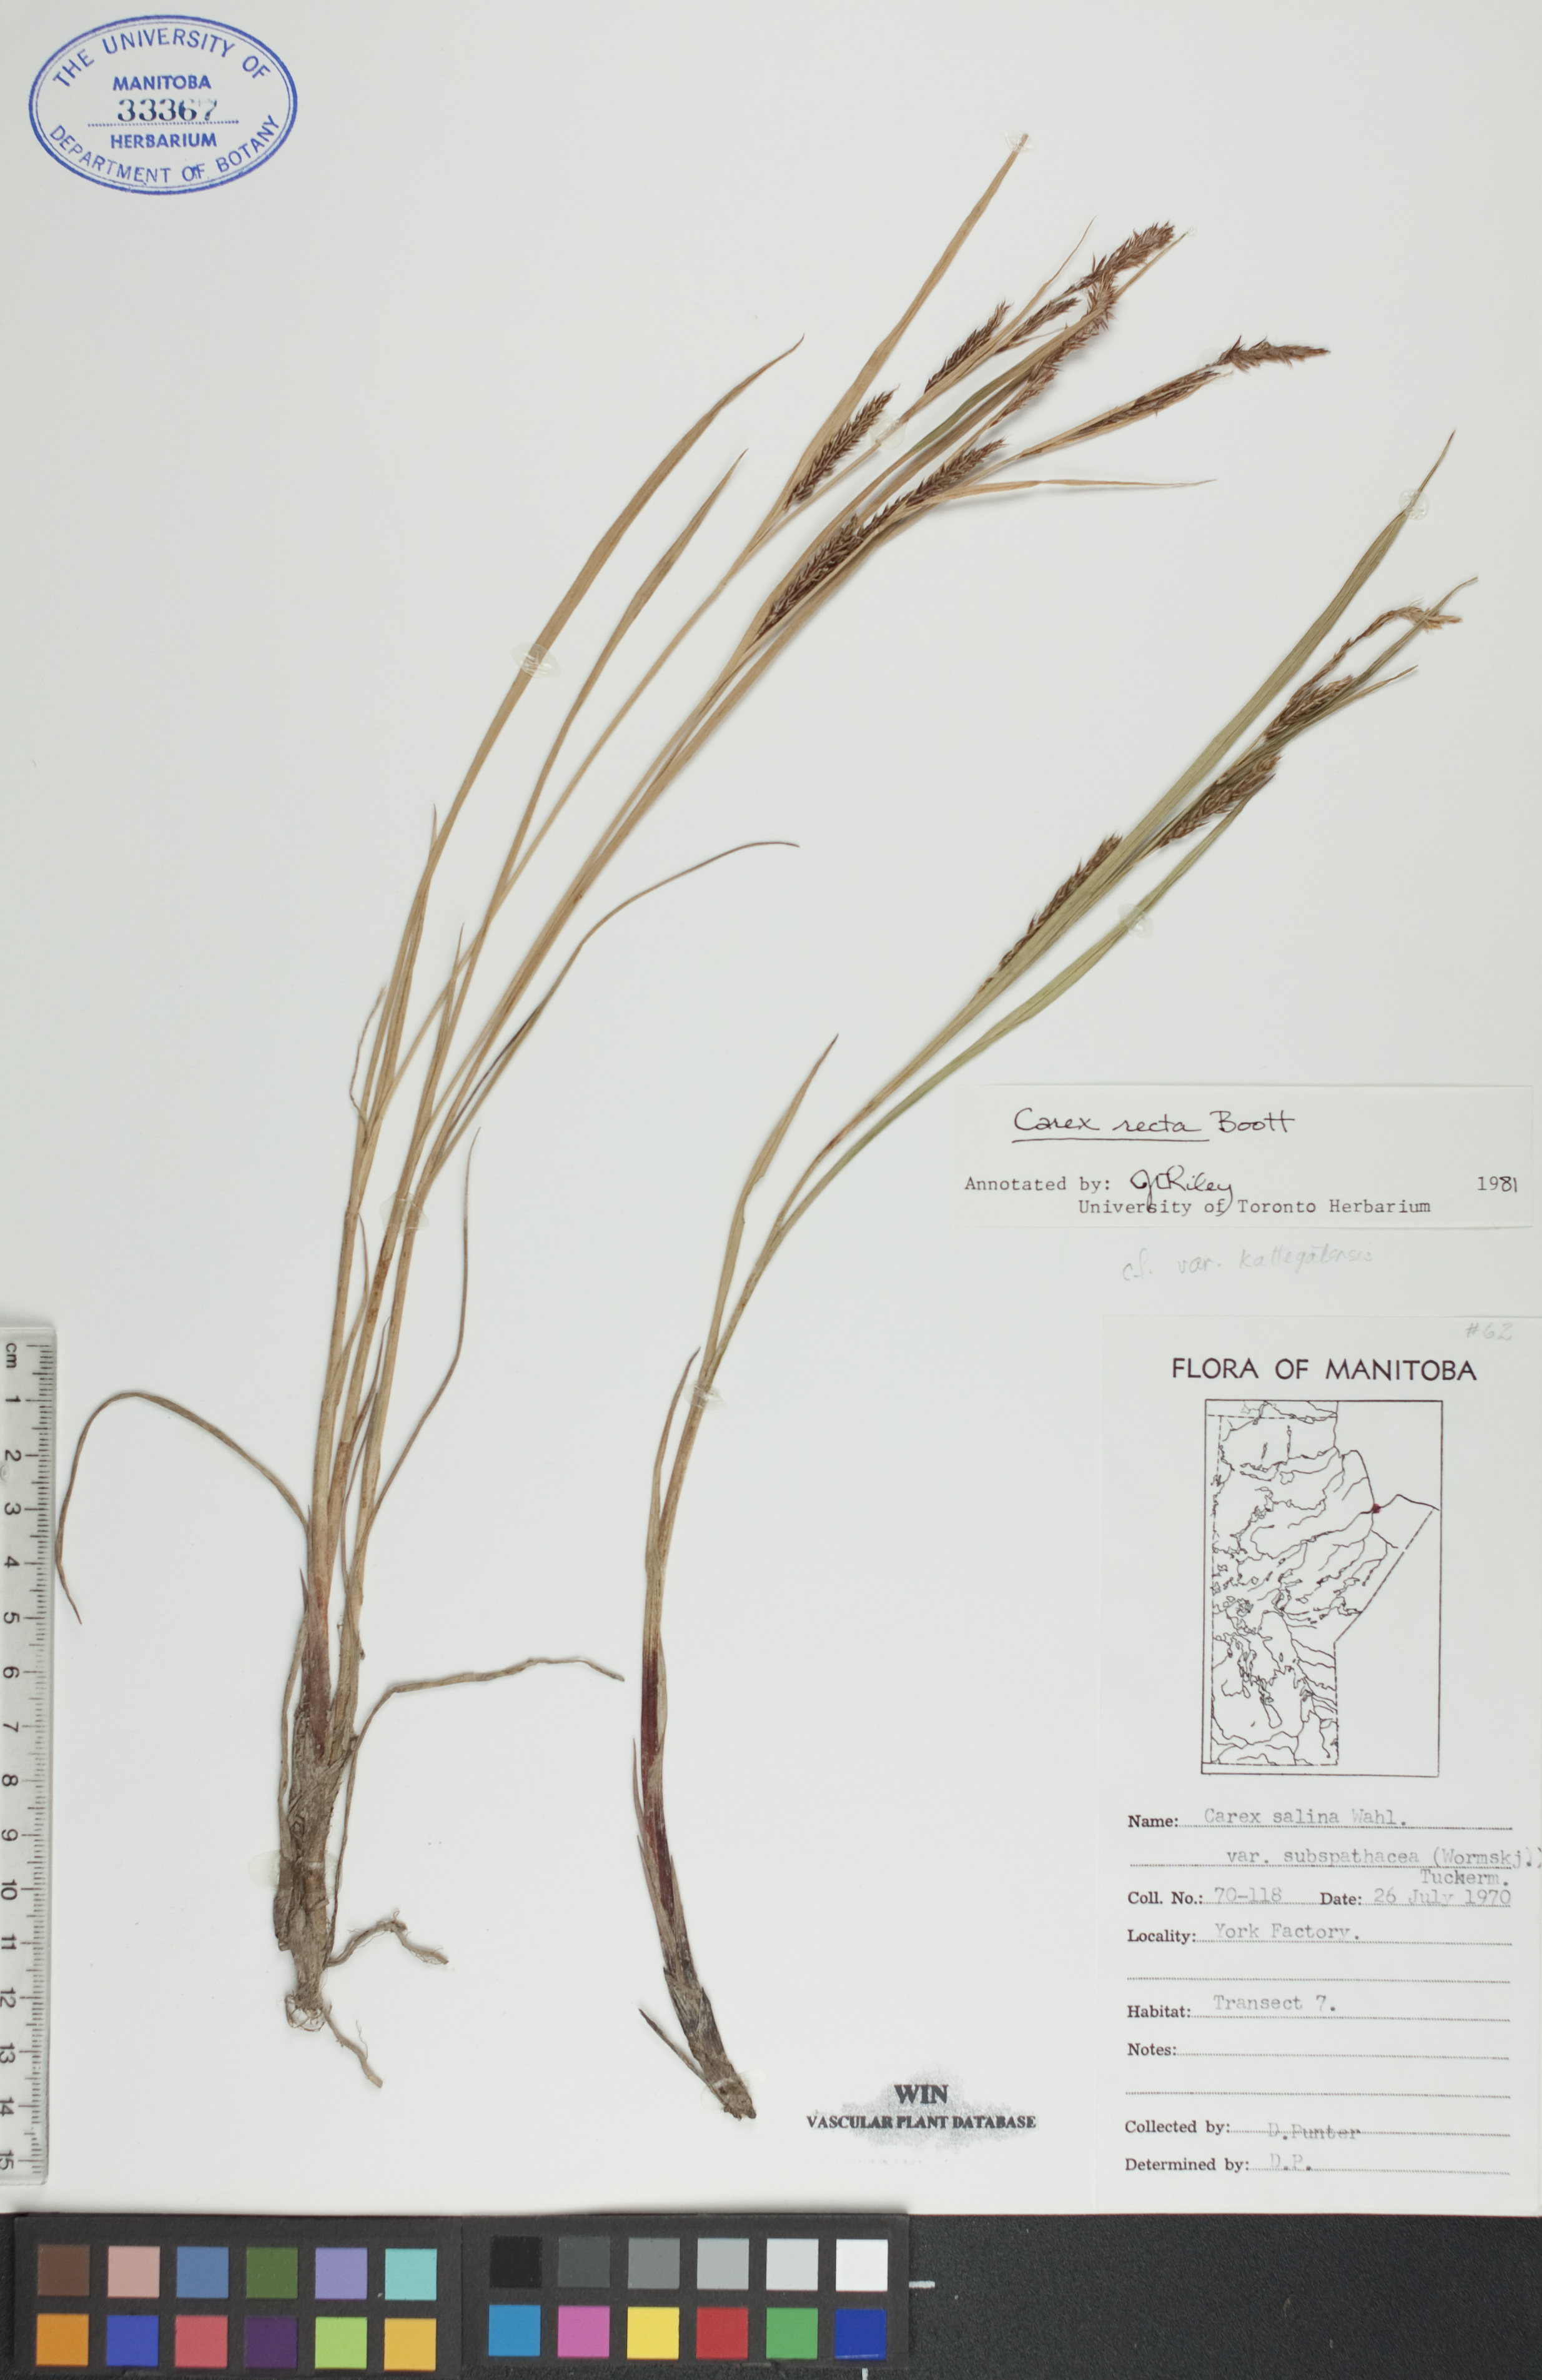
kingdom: Plantae
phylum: Tracheophyta
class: Liliopsida
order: Poales
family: Cyperaceae
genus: Carex
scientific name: Carex recta
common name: Estuarine sedge
